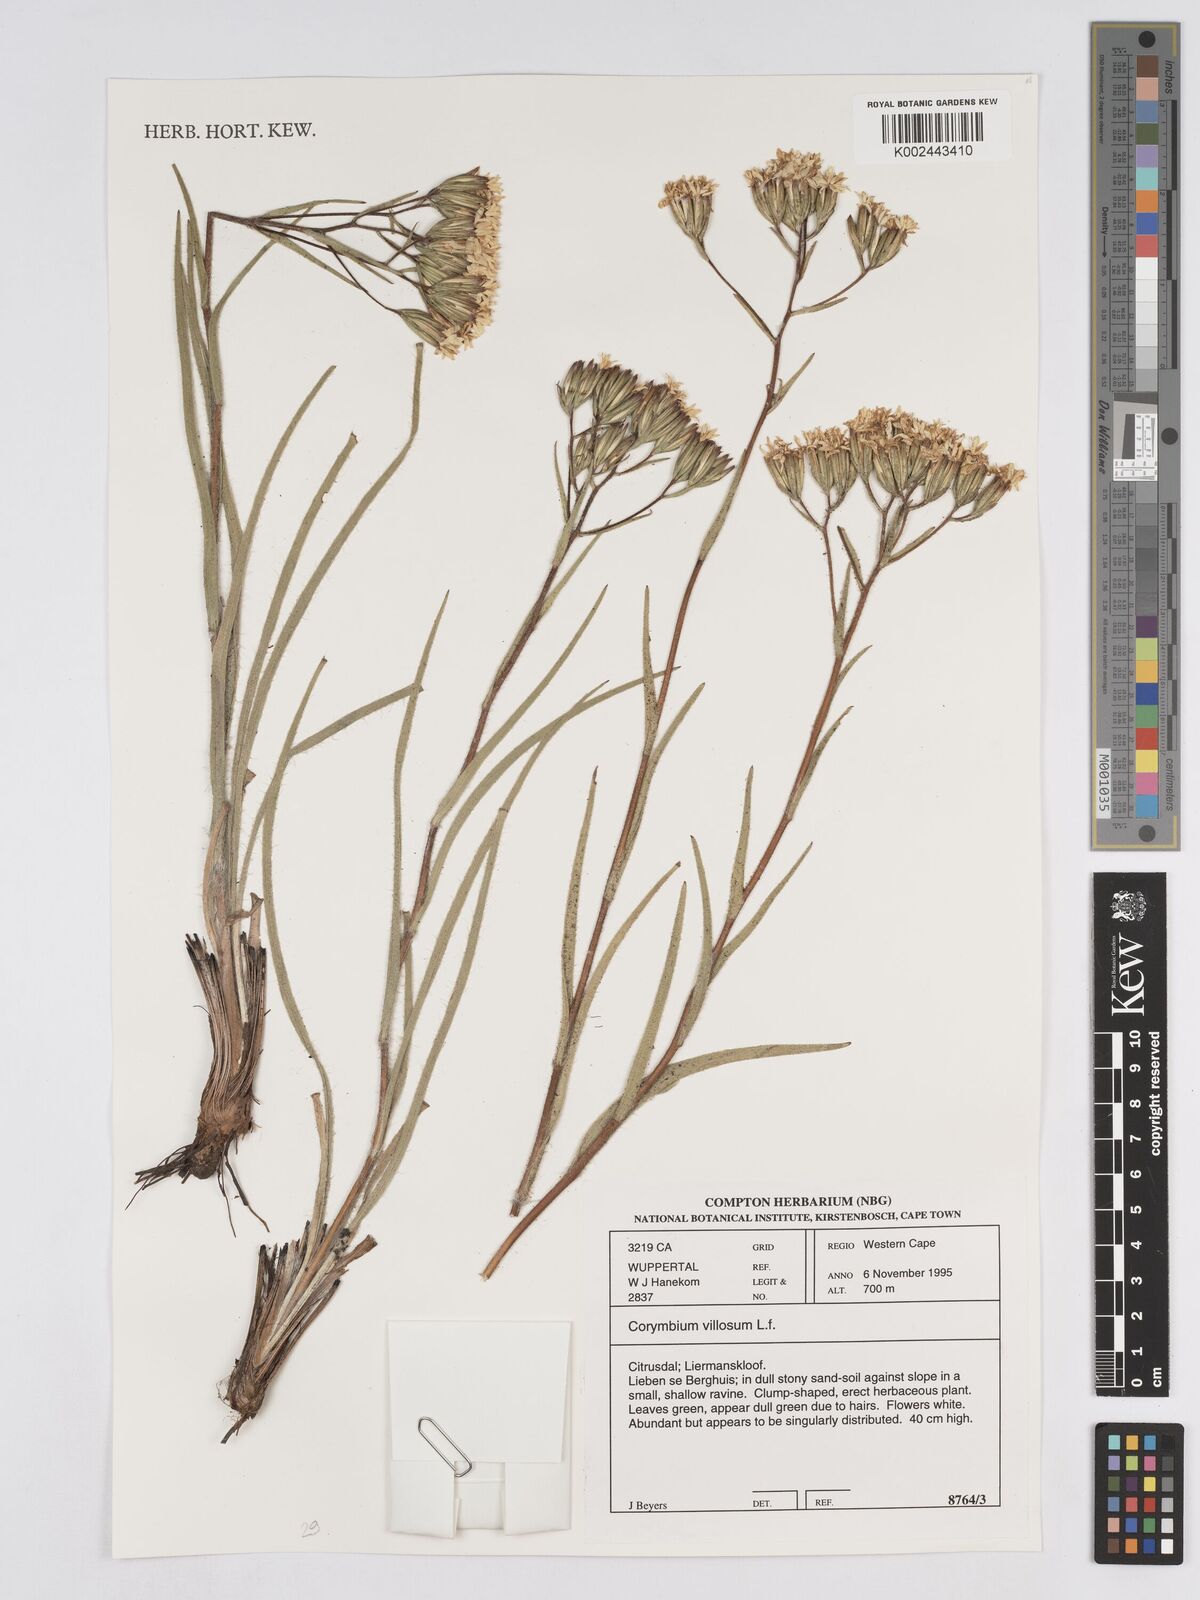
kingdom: Plantae
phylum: Tracheophyta
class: Magnoliopsida
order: Asterales
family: Asteraceae
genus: Corymbium
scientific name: Corymbium villosum
